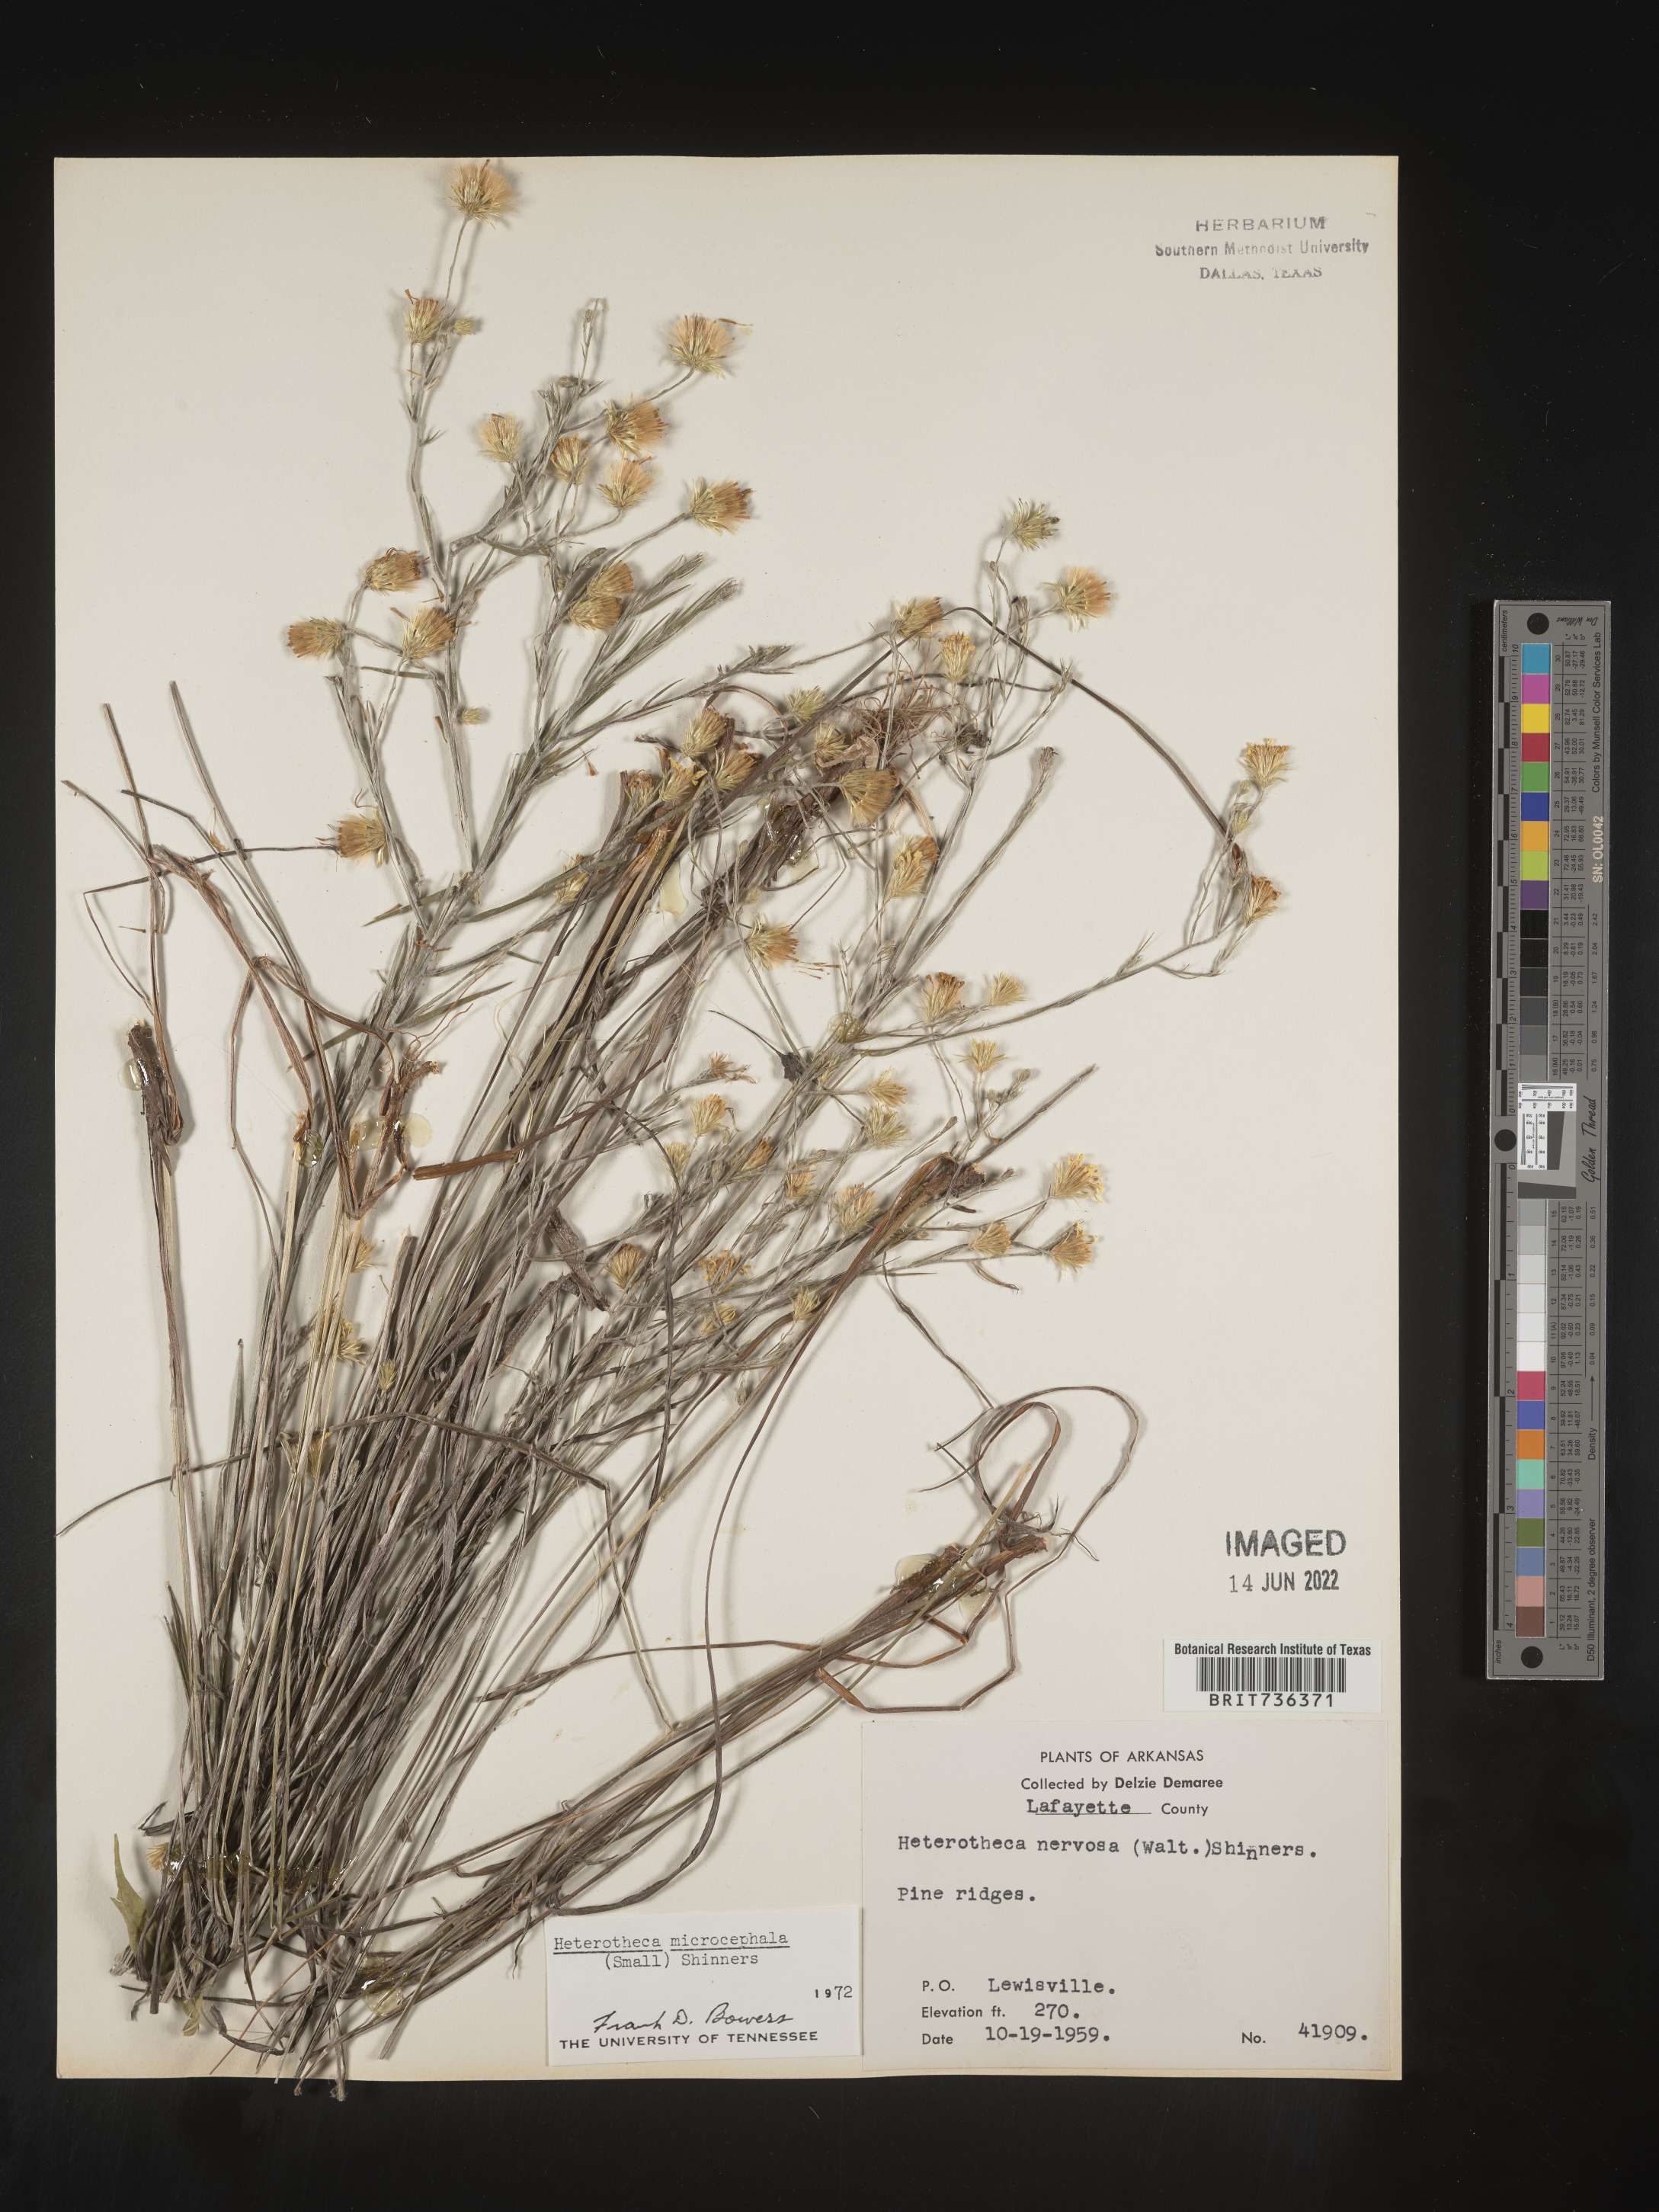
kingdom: Plantae
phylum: Tracheophyta
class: Magnoliopsida
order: Asterales
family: Asteraceae
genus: Pityopsis
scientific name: Pityopsis tenuifolia
